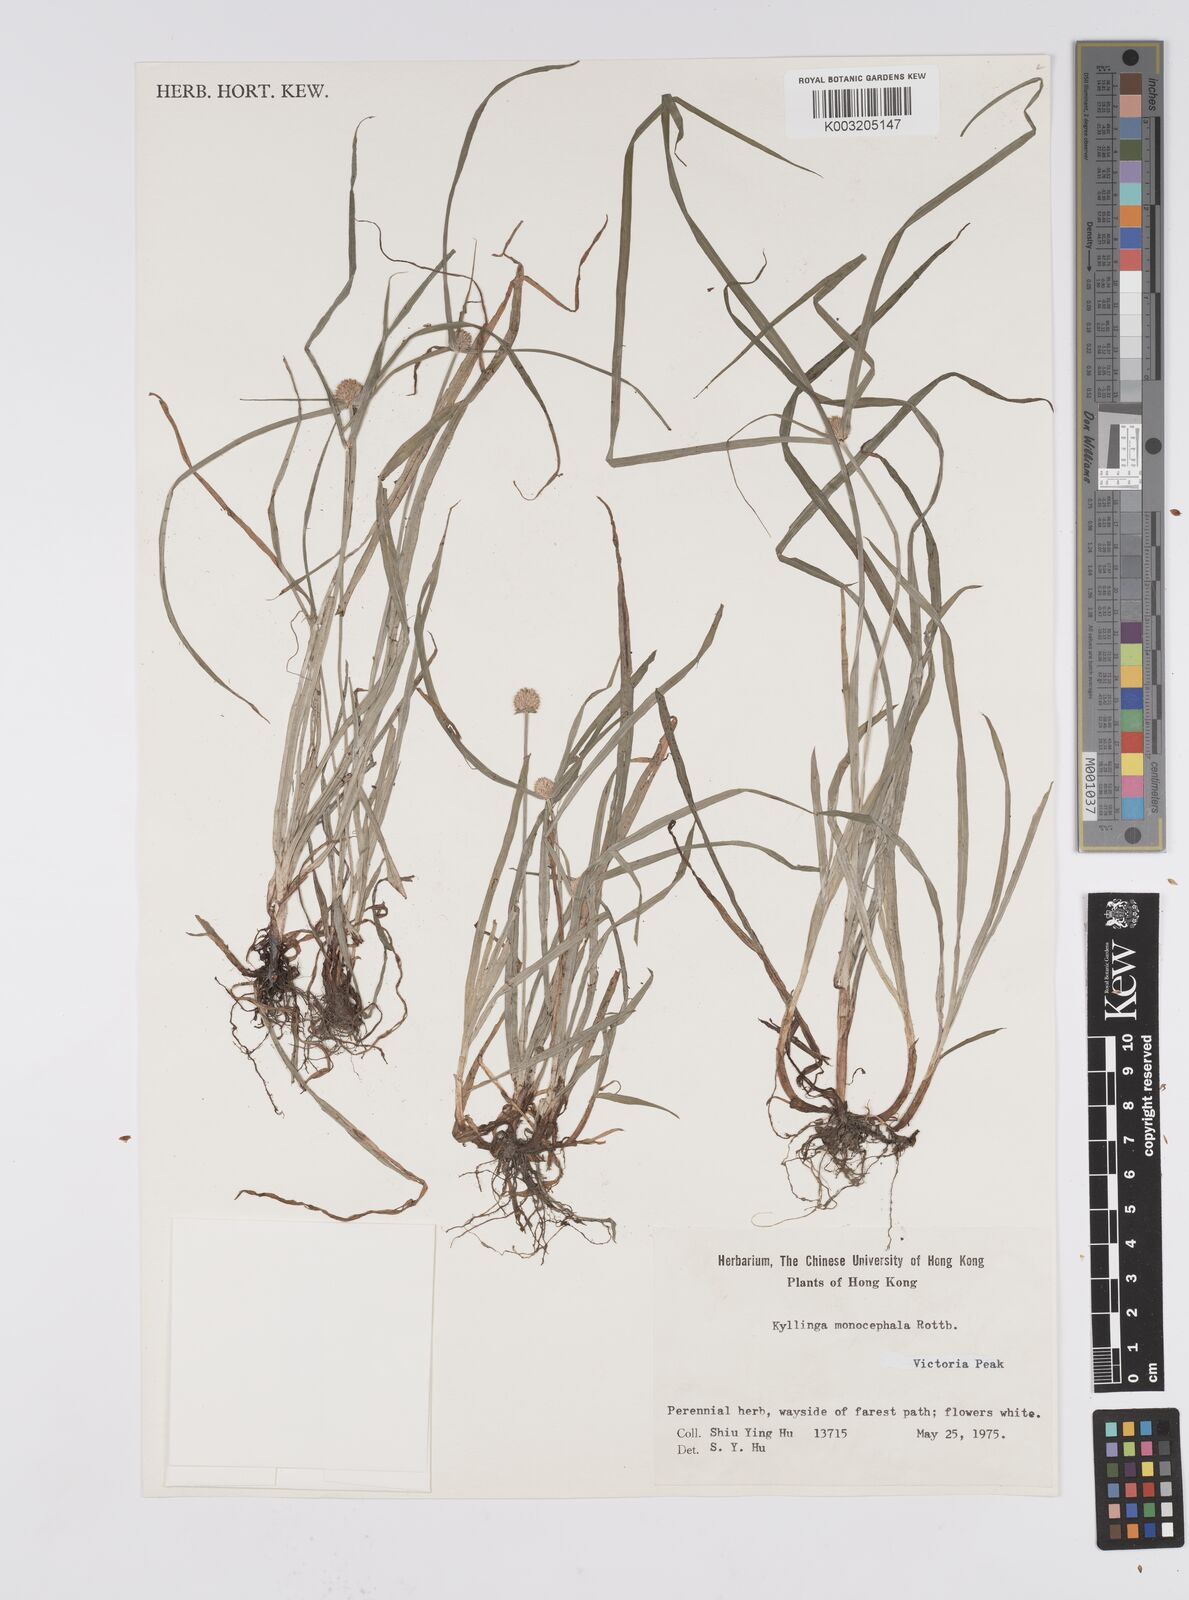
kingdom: Plantae
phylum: Tracheophyta
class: Liliopsida
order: Poales
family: Cyperaceae
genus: Cyperus
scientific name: Cyperus nemoralis
